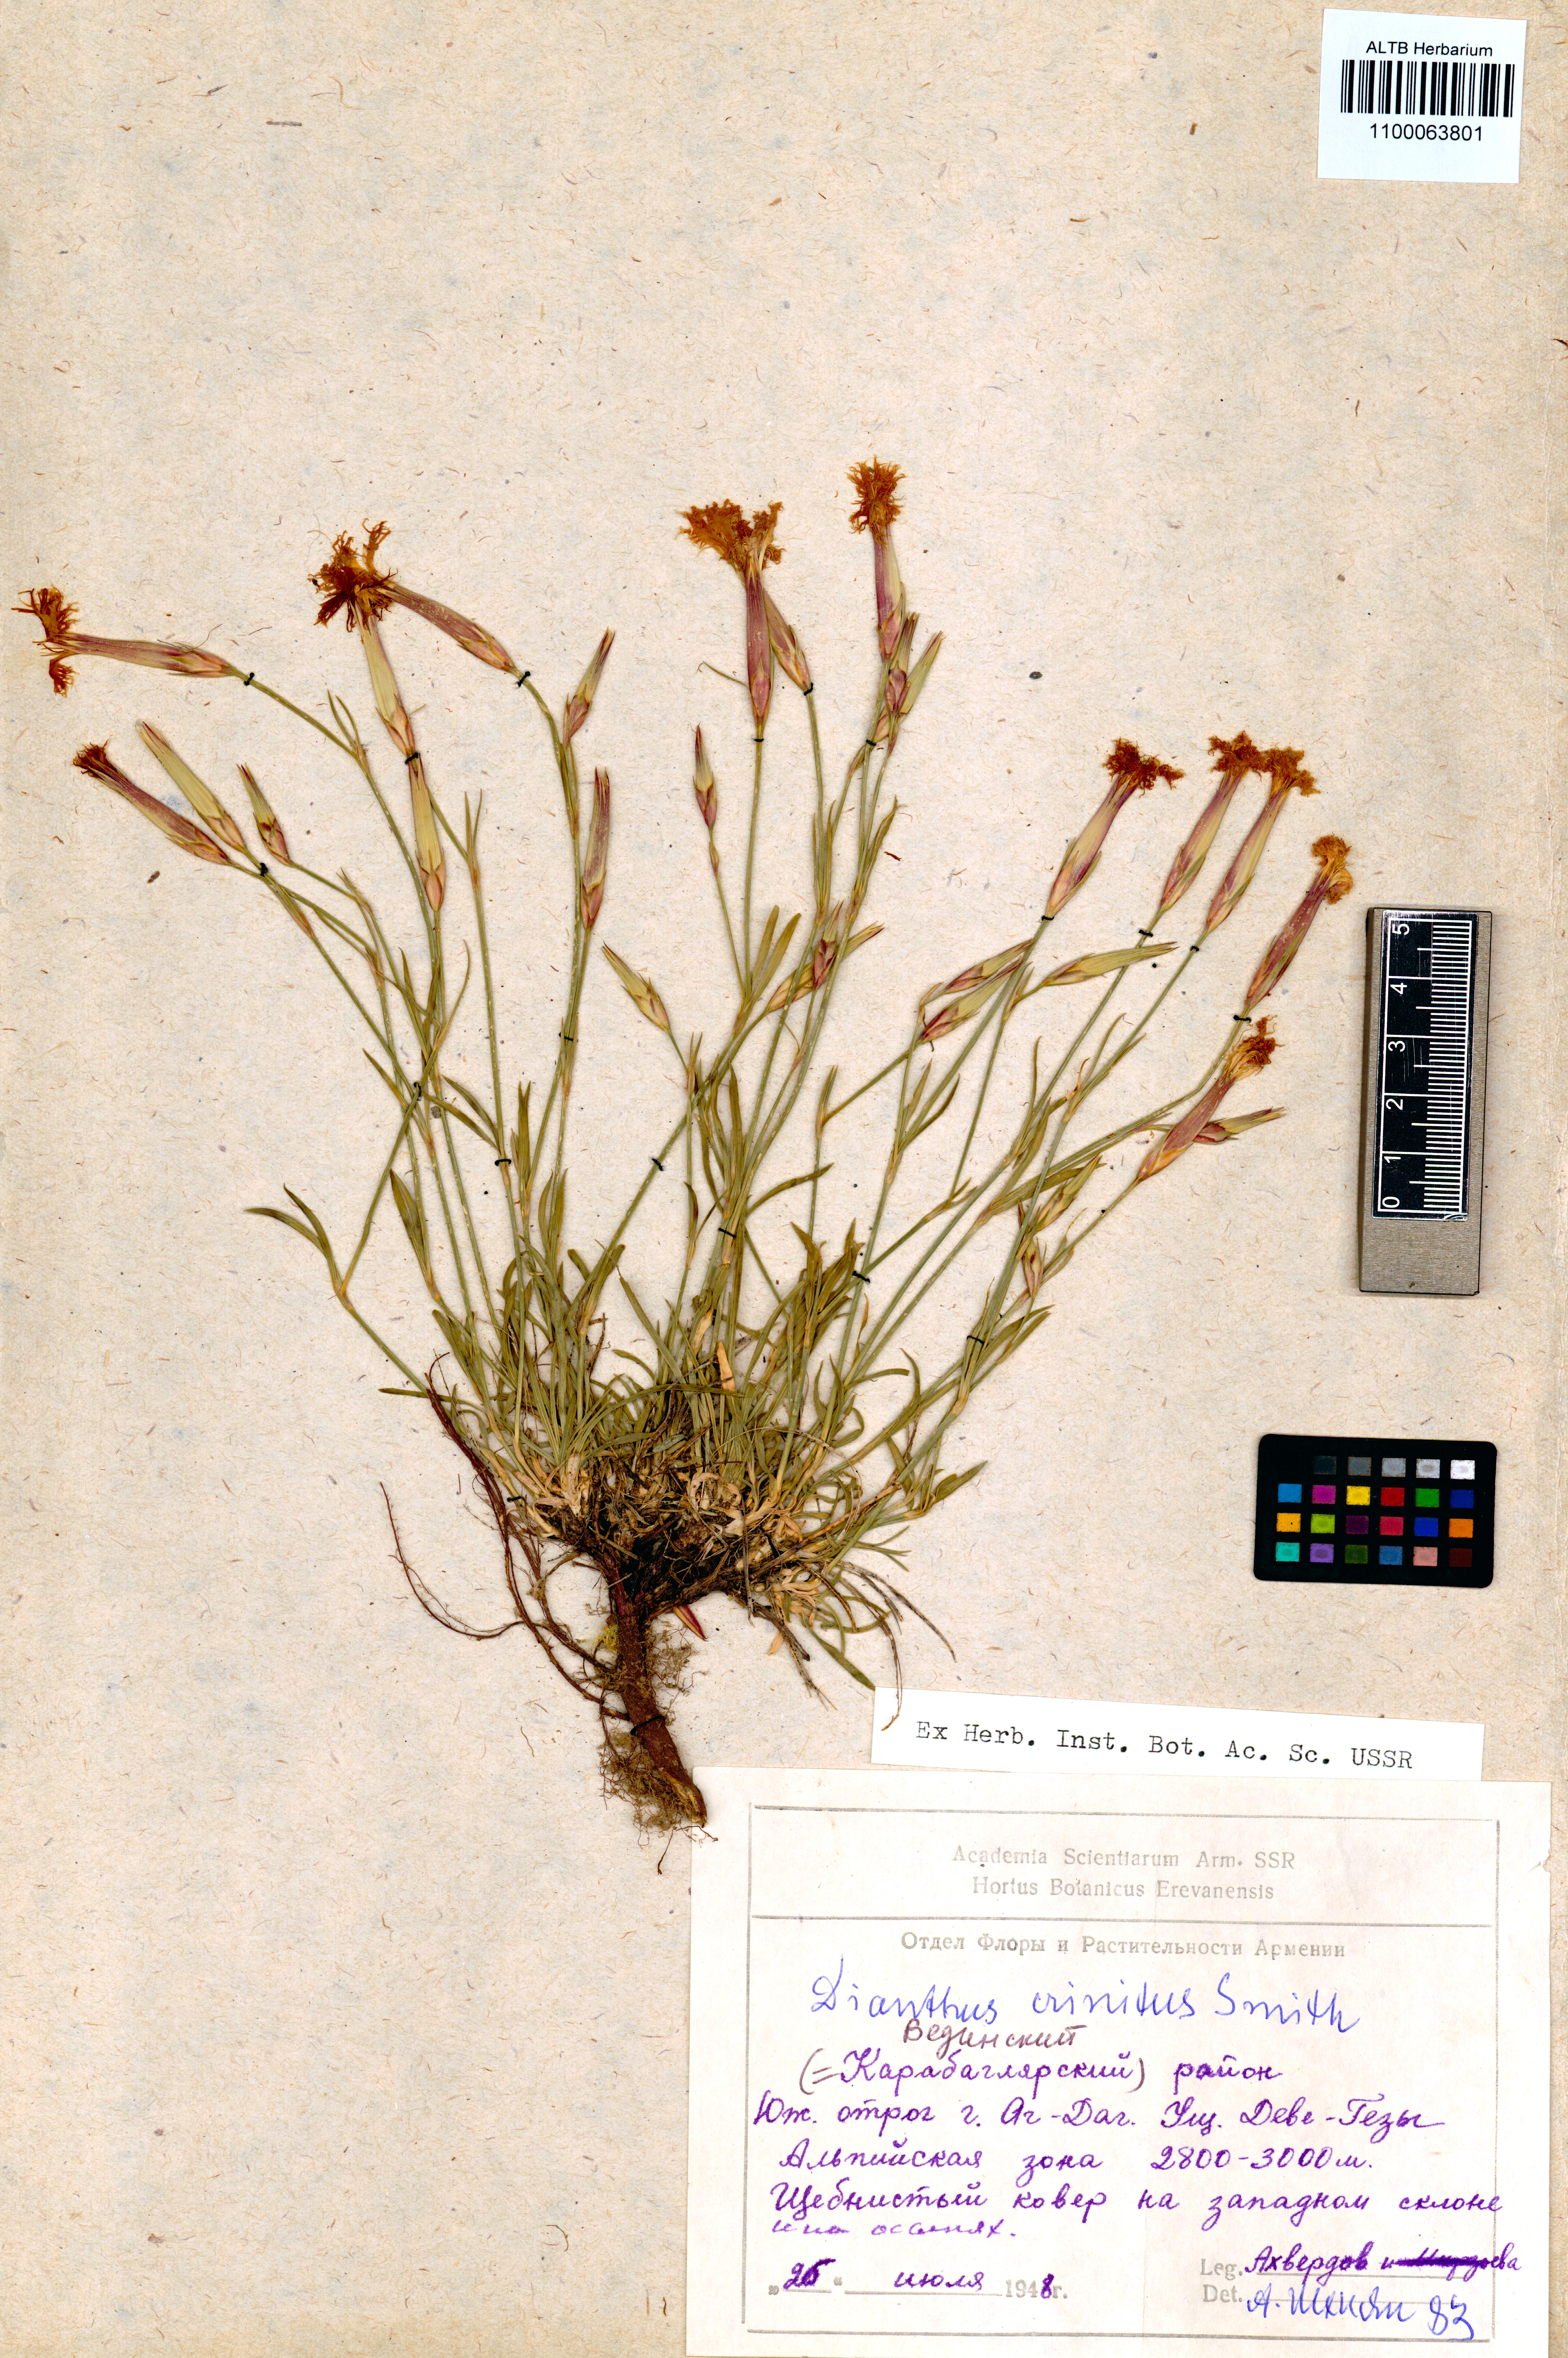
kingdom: Plantae
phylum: Tracheophyta
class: Magnoliopsida
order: Caryophyllales
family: Caryophyllaceae
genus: Dianthus
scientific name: Dianthus crinitus
